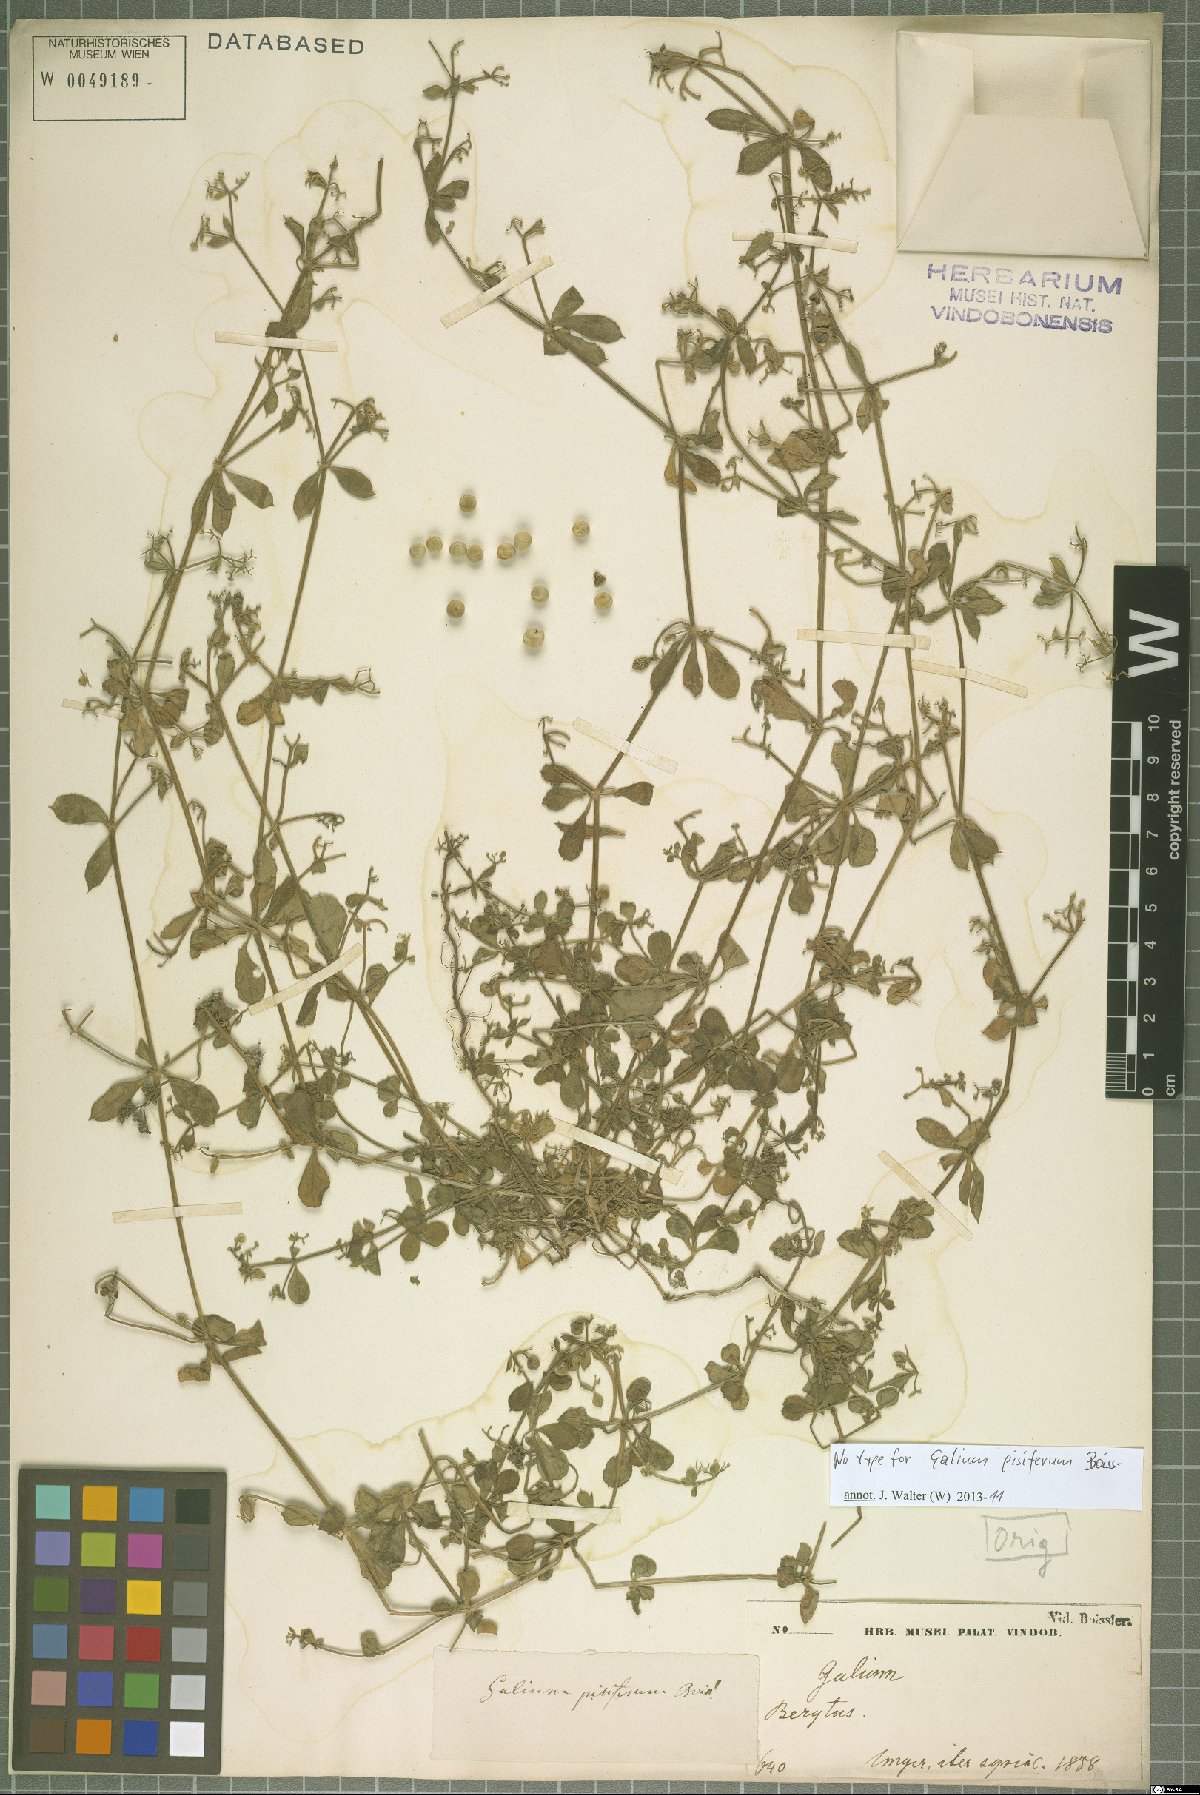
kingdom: Plantae
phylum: Tracheophyta
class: Magnoliopsida
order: Gentianales
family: Rubiaceae
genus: Galium
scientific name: Galium pisiferum
